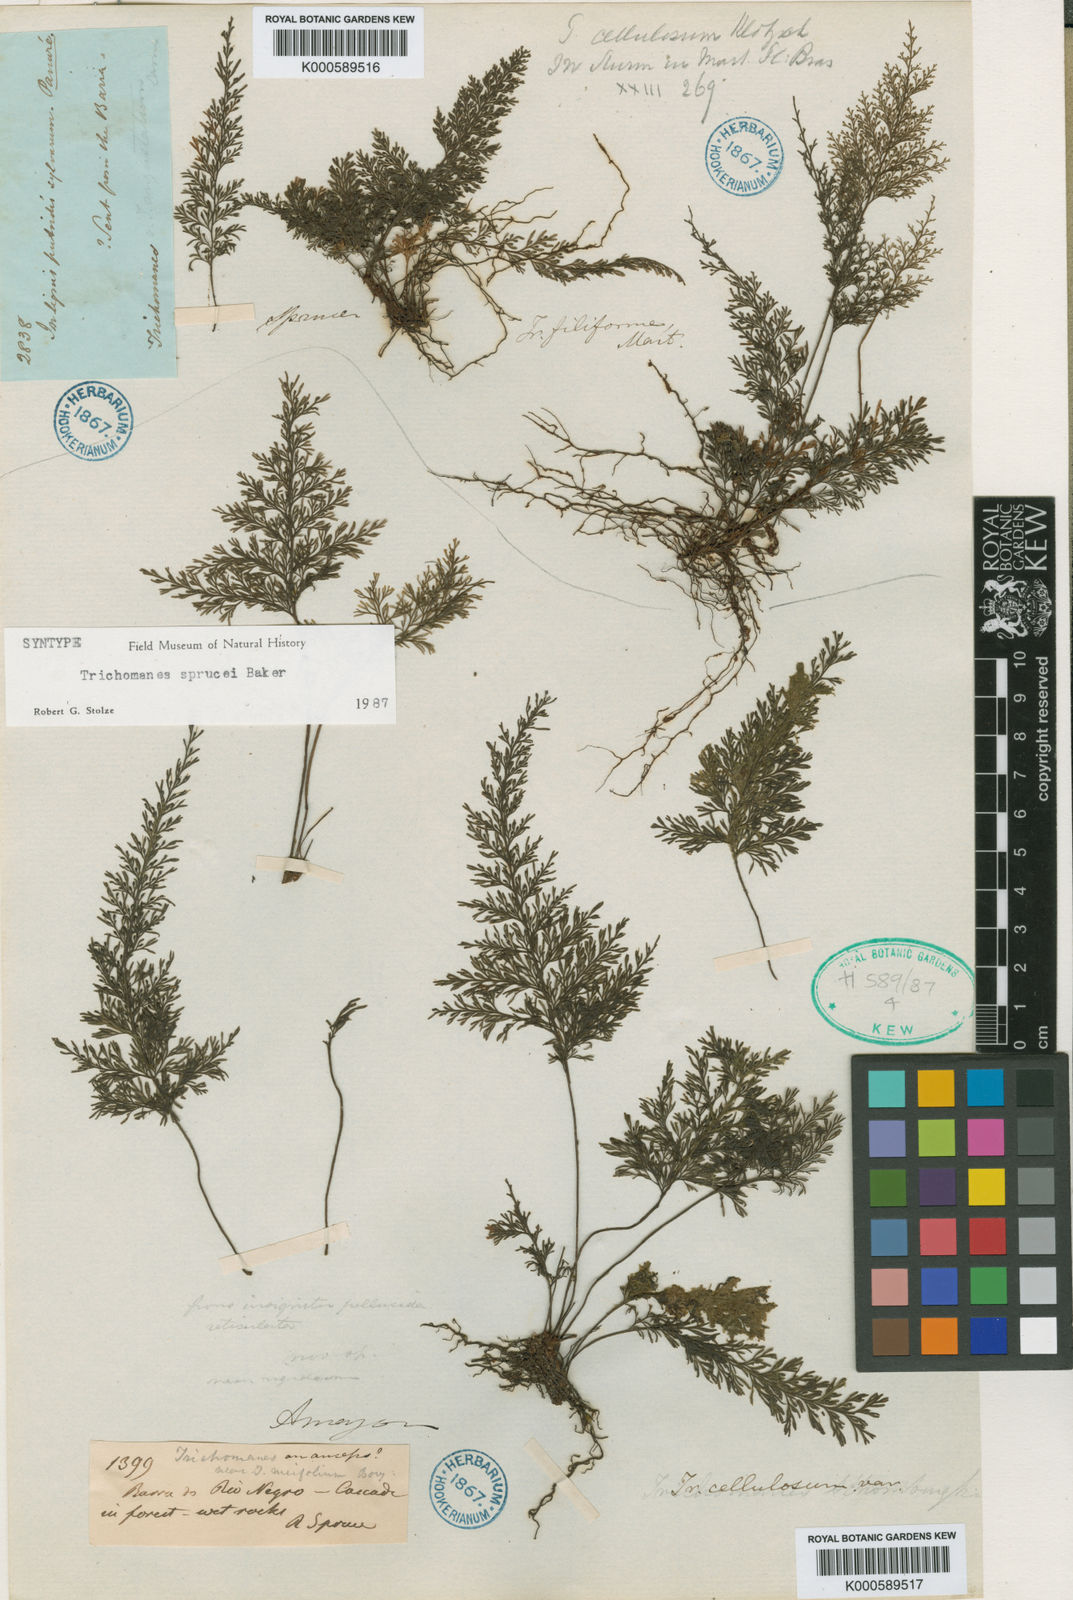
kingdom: Plantae
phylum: Tracheophyta
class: Polypodiopsida
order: Hymenophyllales
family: Hymenophyllaceae
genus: Abrodictyum
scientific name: Abrodictyum sprucei
